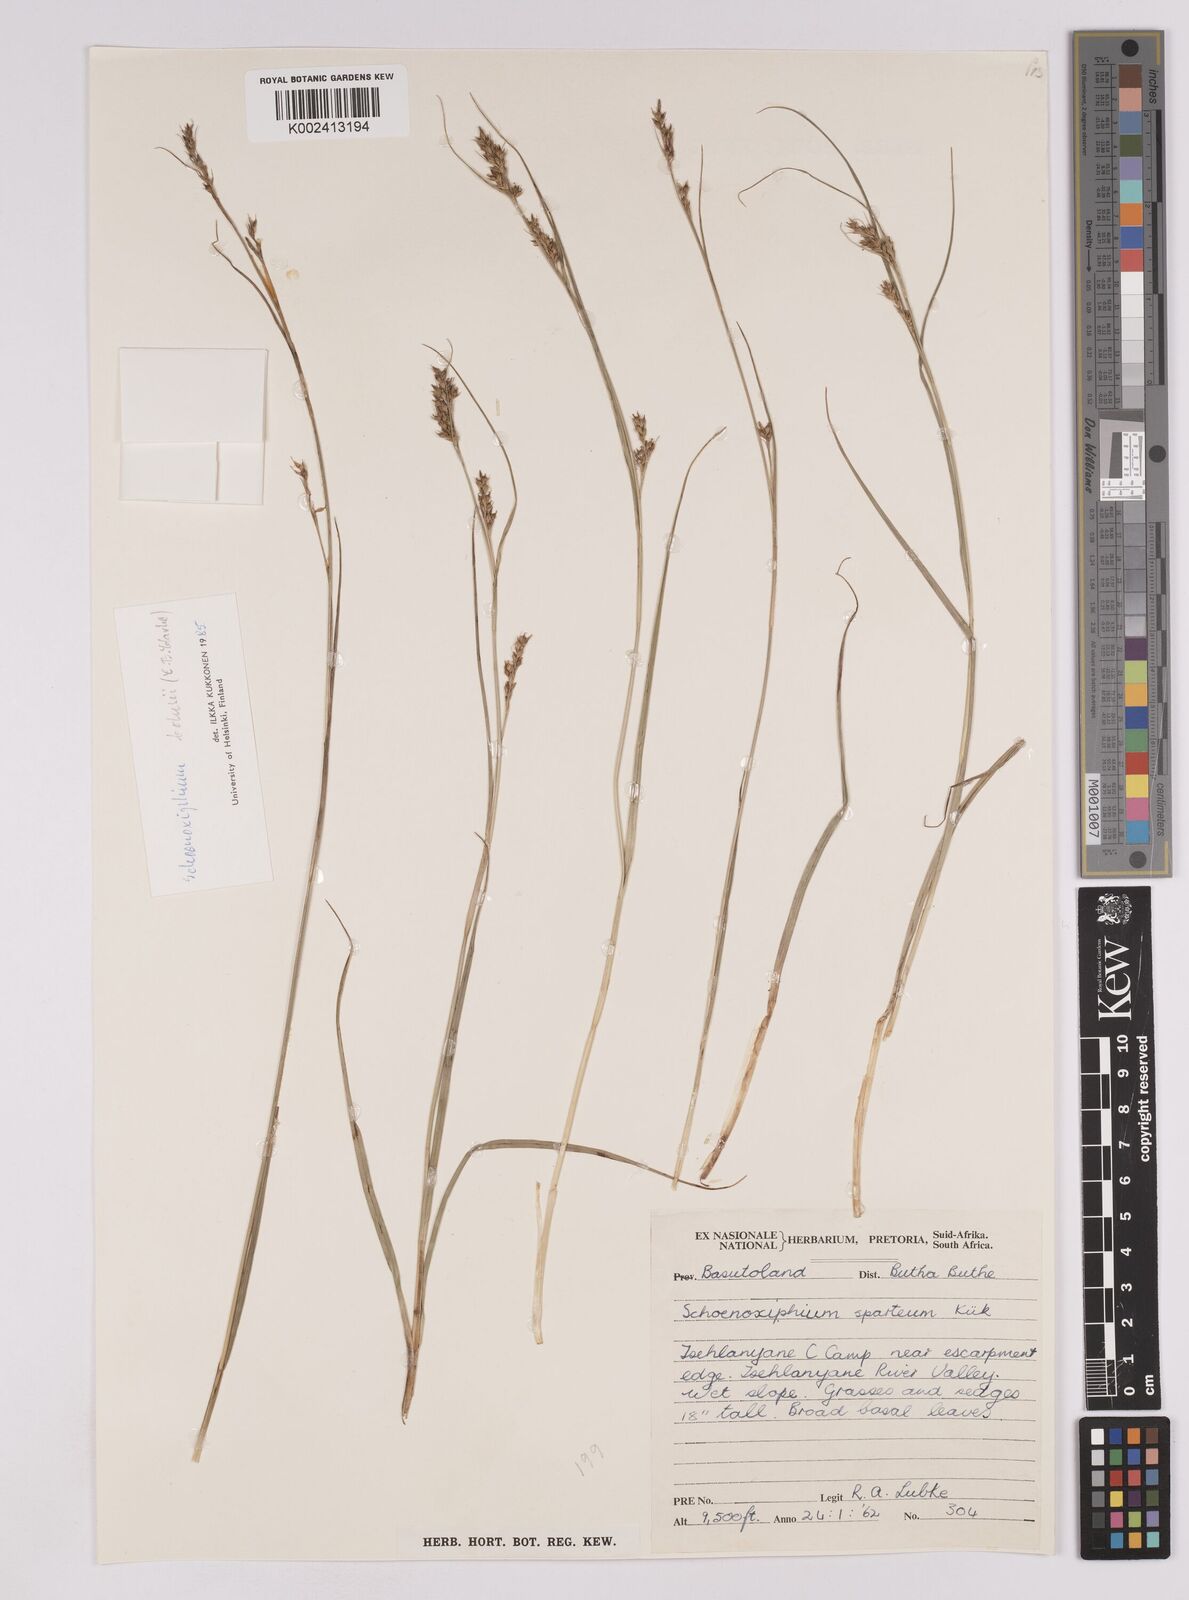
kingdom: Plantae
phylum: Tracheophyta
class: Liliopsida
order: Poales
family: Cyperaceae
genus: Carex
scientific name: Carex spartea
